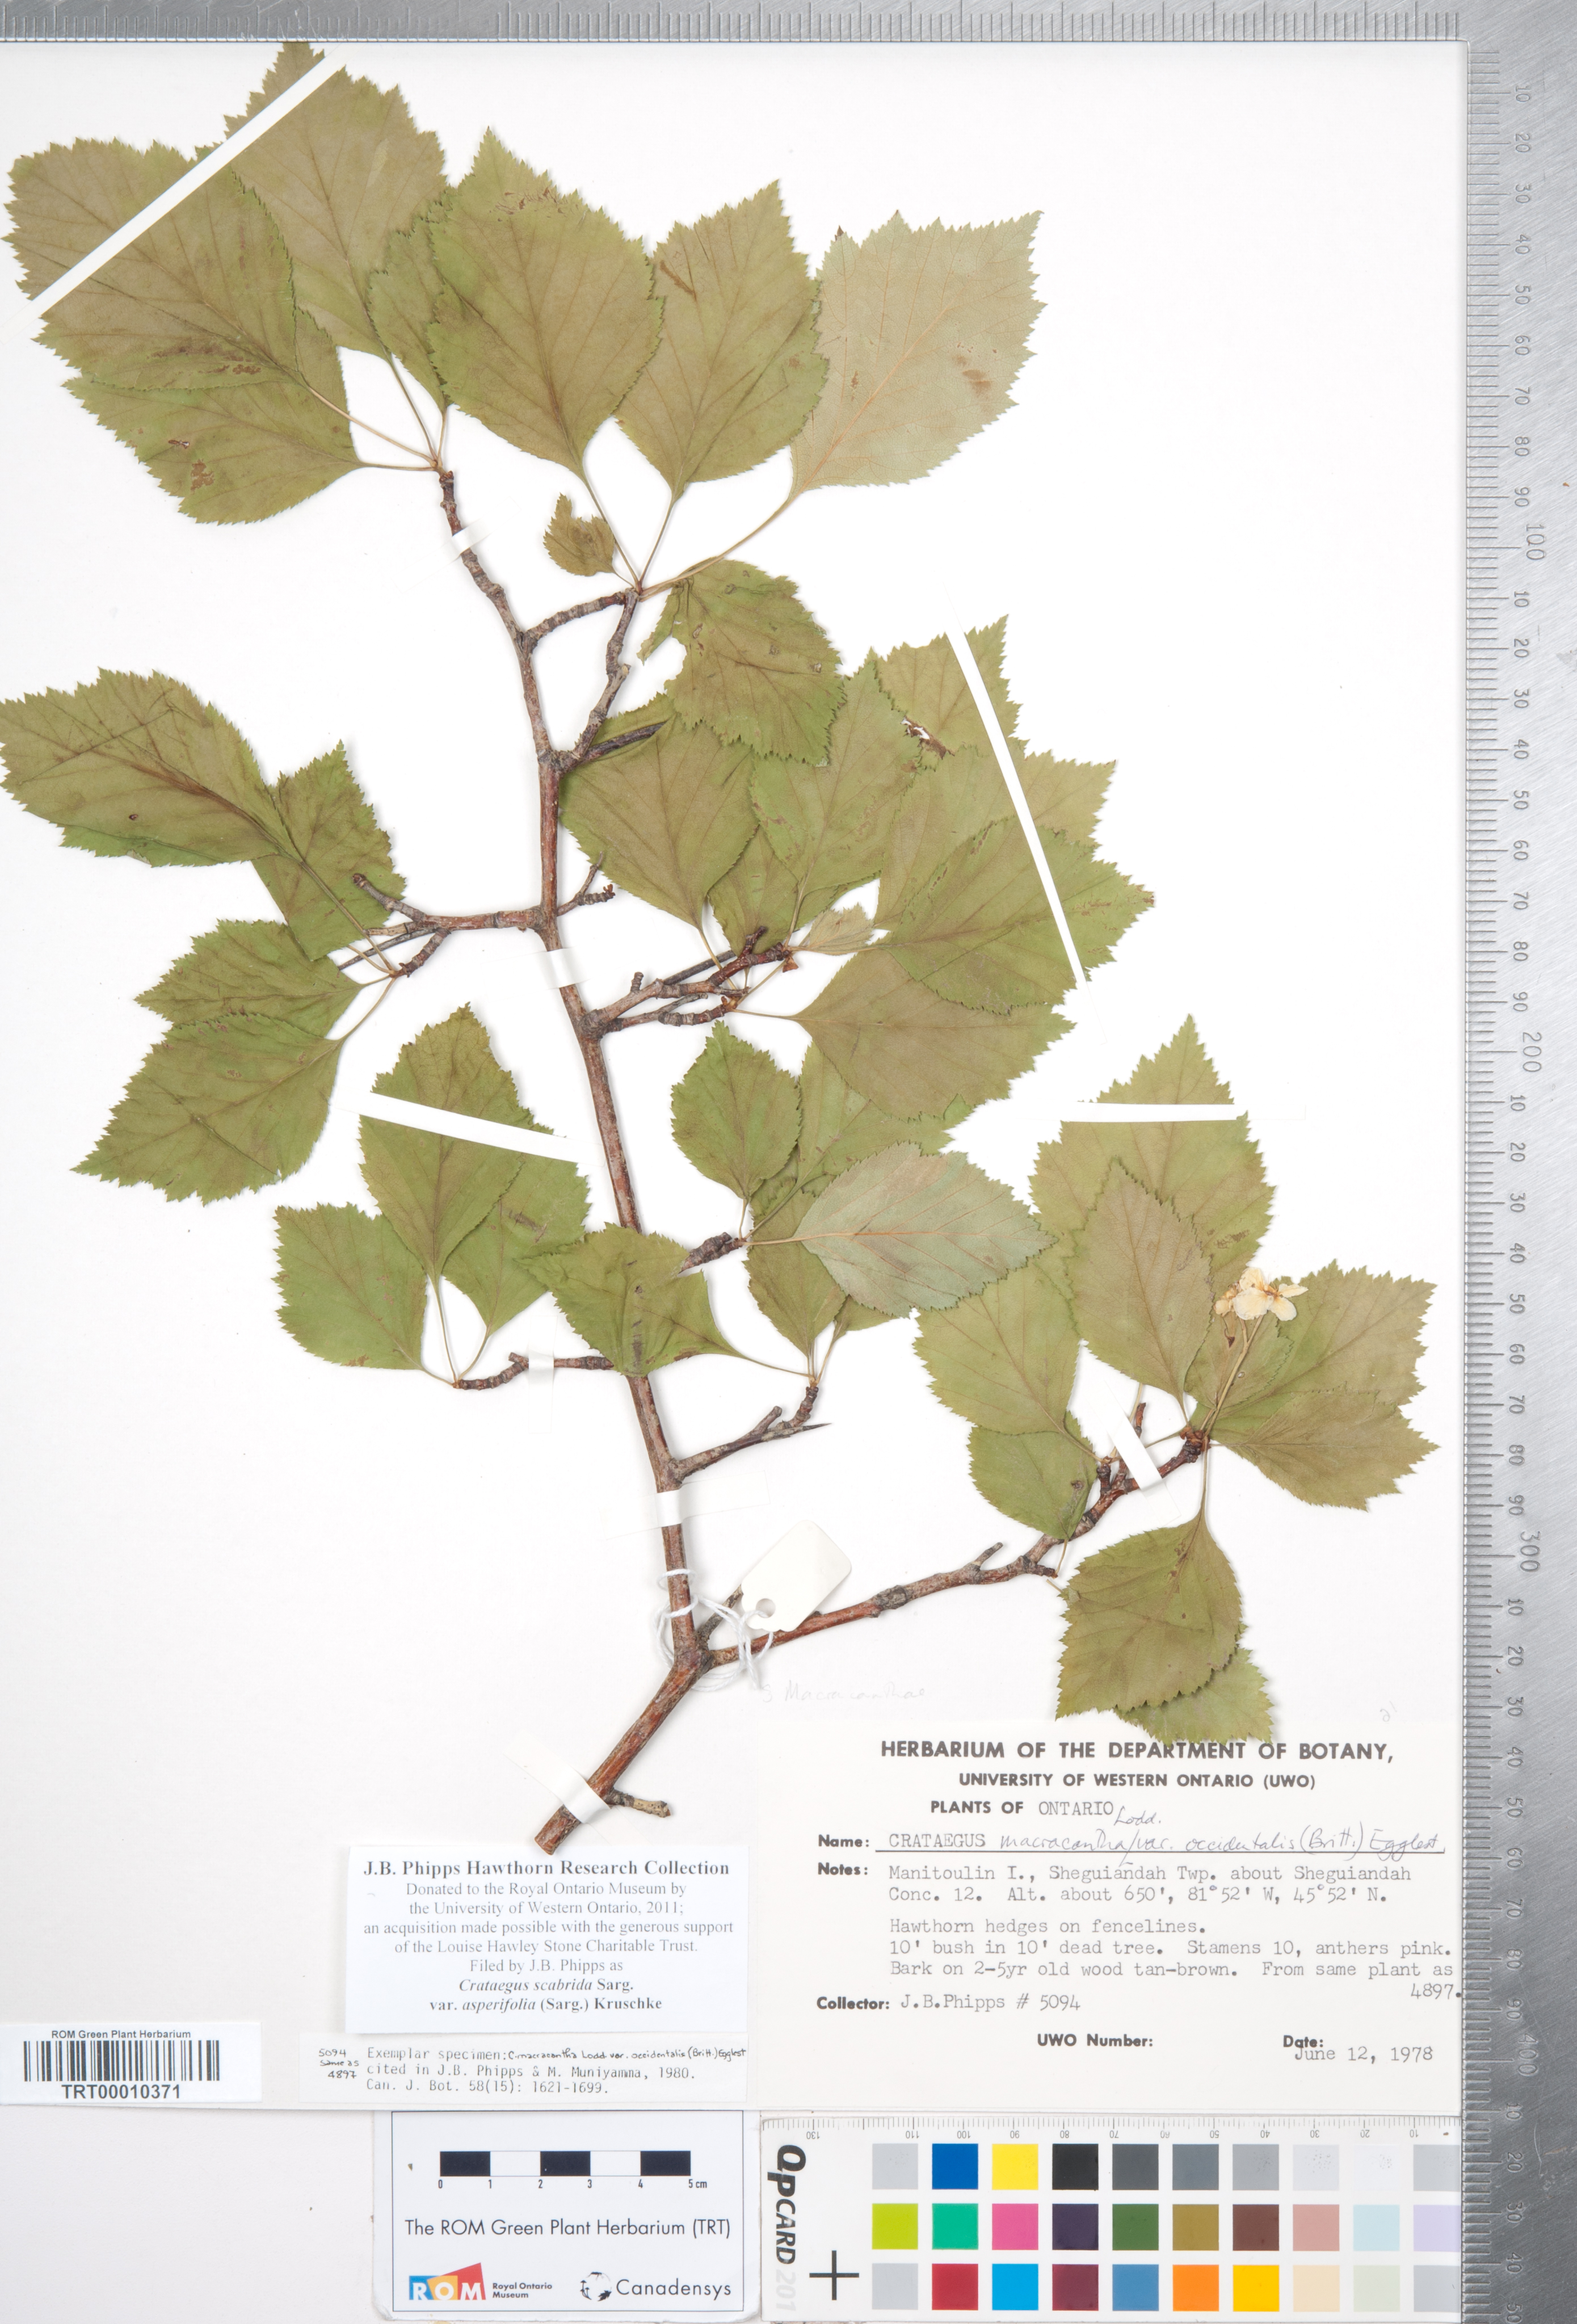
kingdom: Plantae
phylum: Tracheophyta
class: Magnoliopsida
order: Rosales
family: Rosaceae
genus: Crataegus
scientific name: Crataegus scabrida
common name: Rough hawthorn
